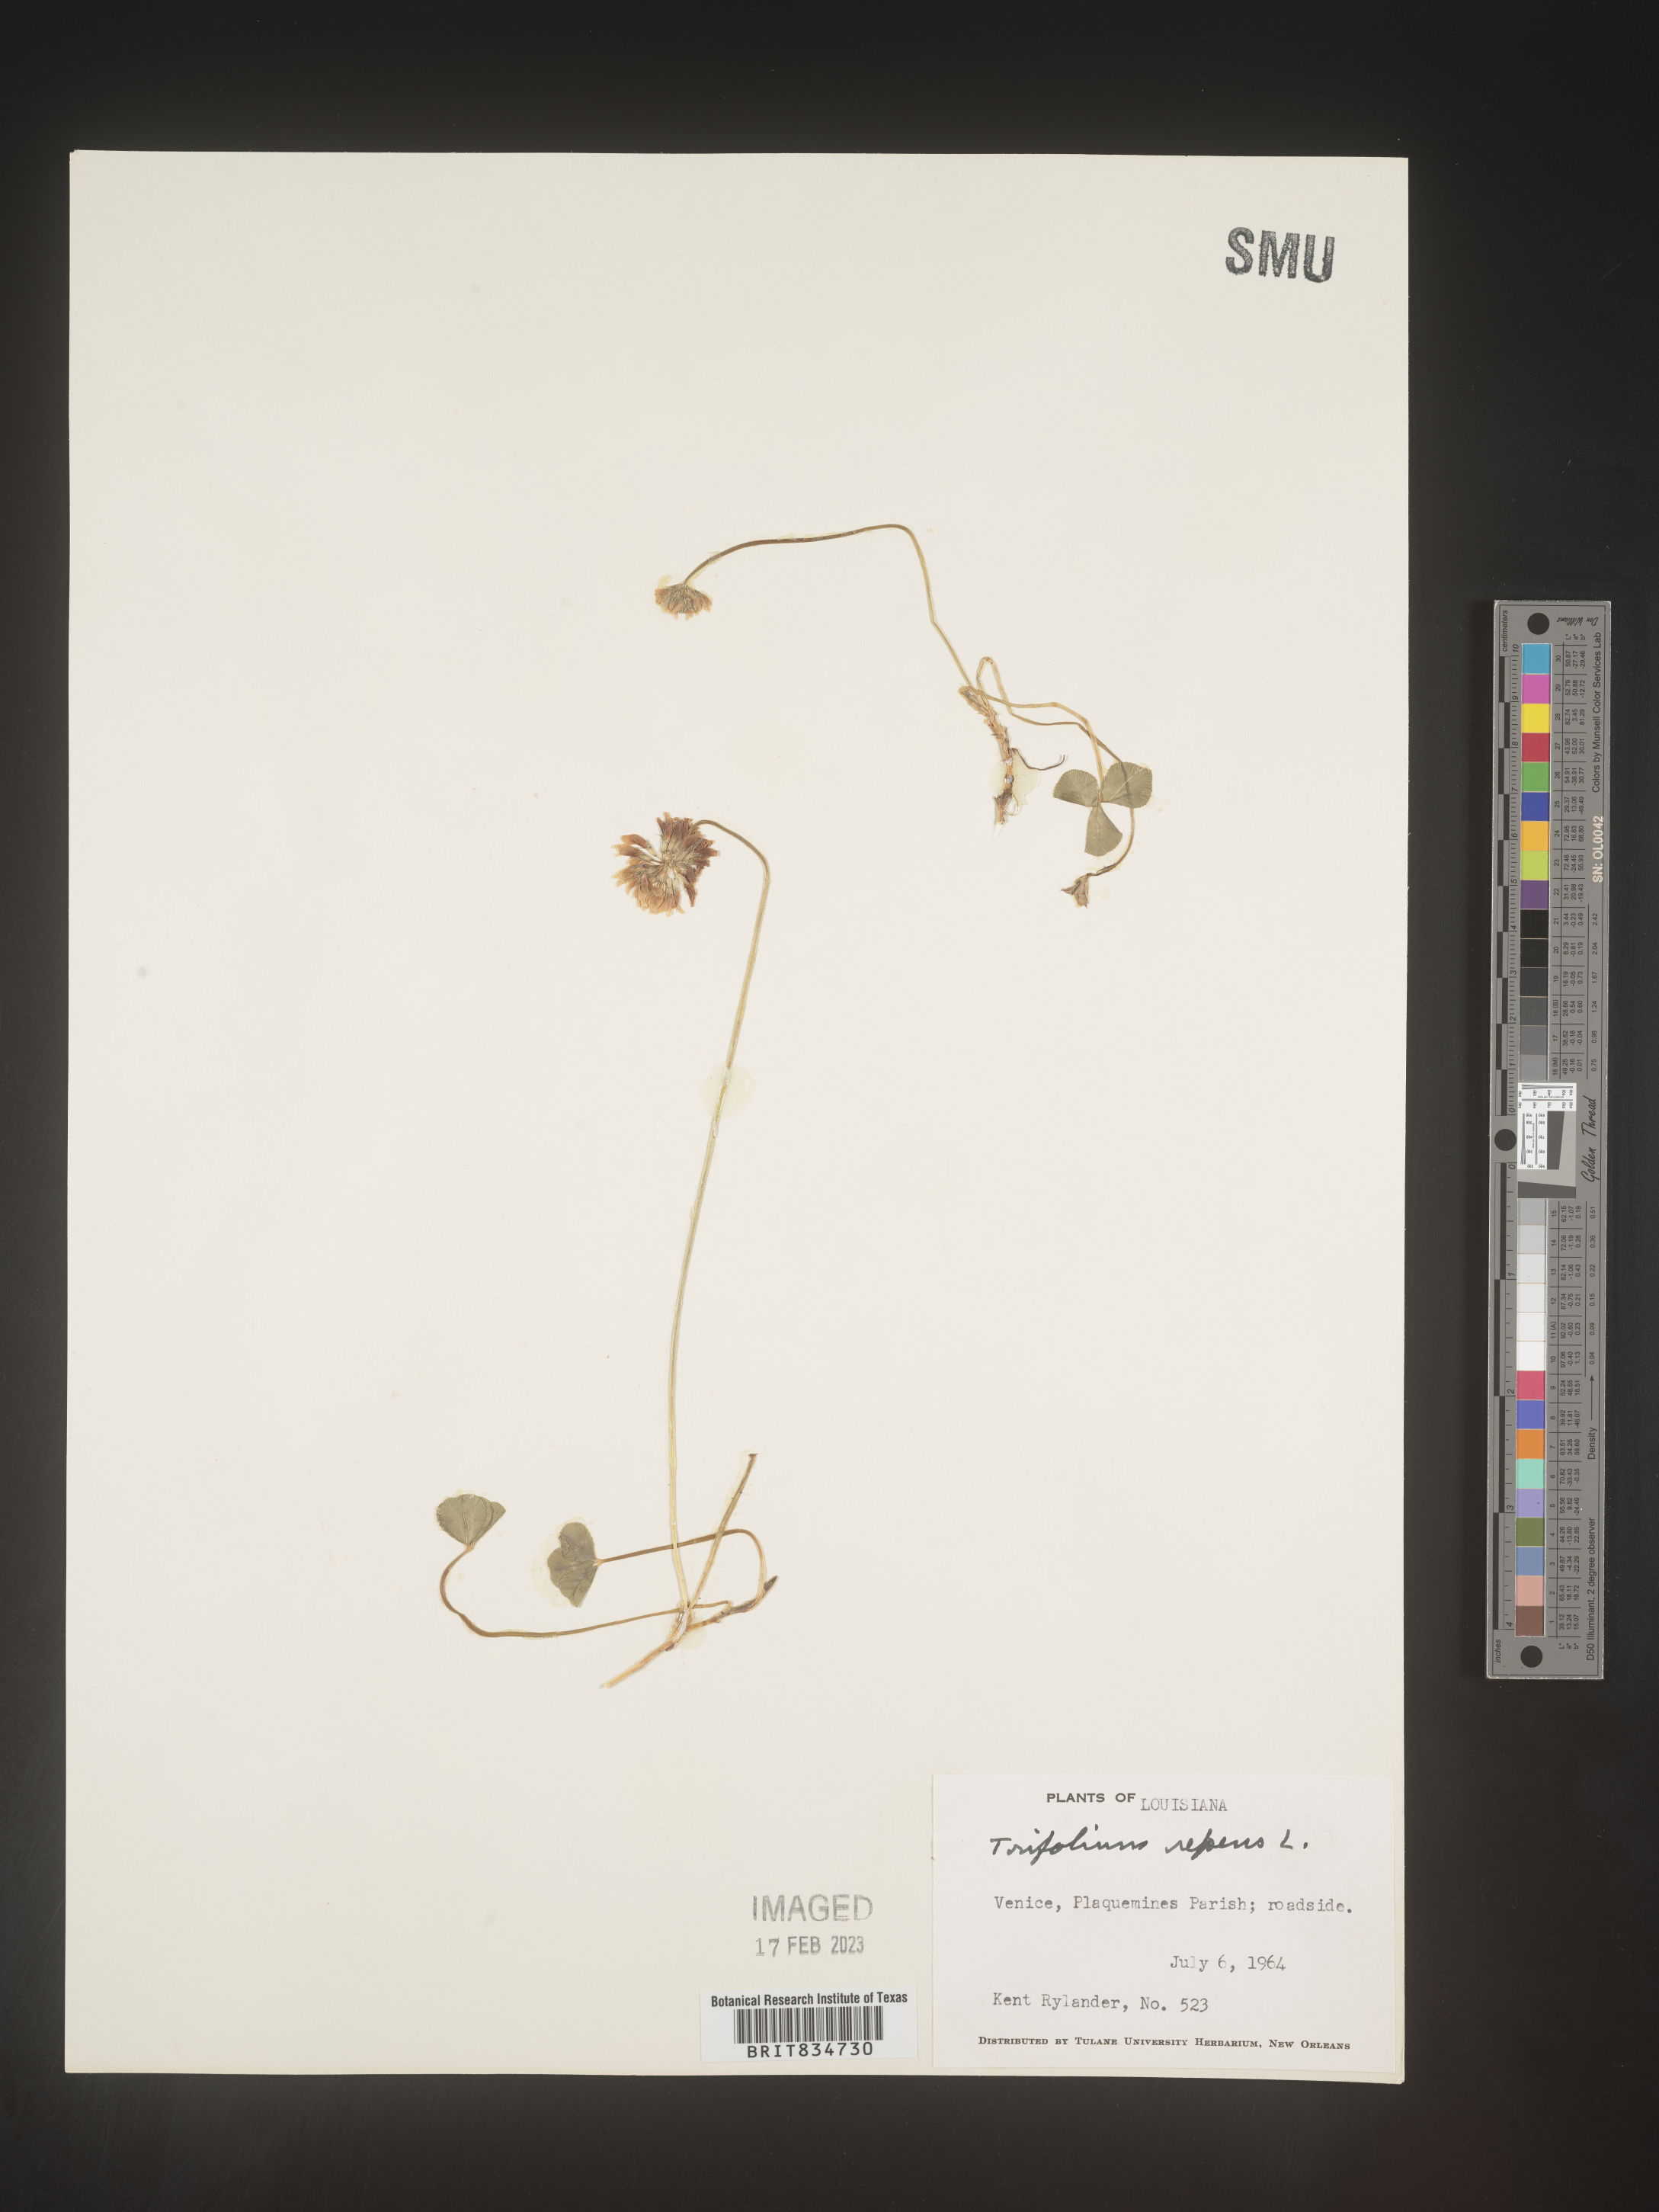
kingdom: Plantae
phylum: Tracheophyta
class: Magnoliopsida
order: Fabales
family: Fabaceae
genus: Trifolium
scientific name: Trifolium repens
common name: White clover
